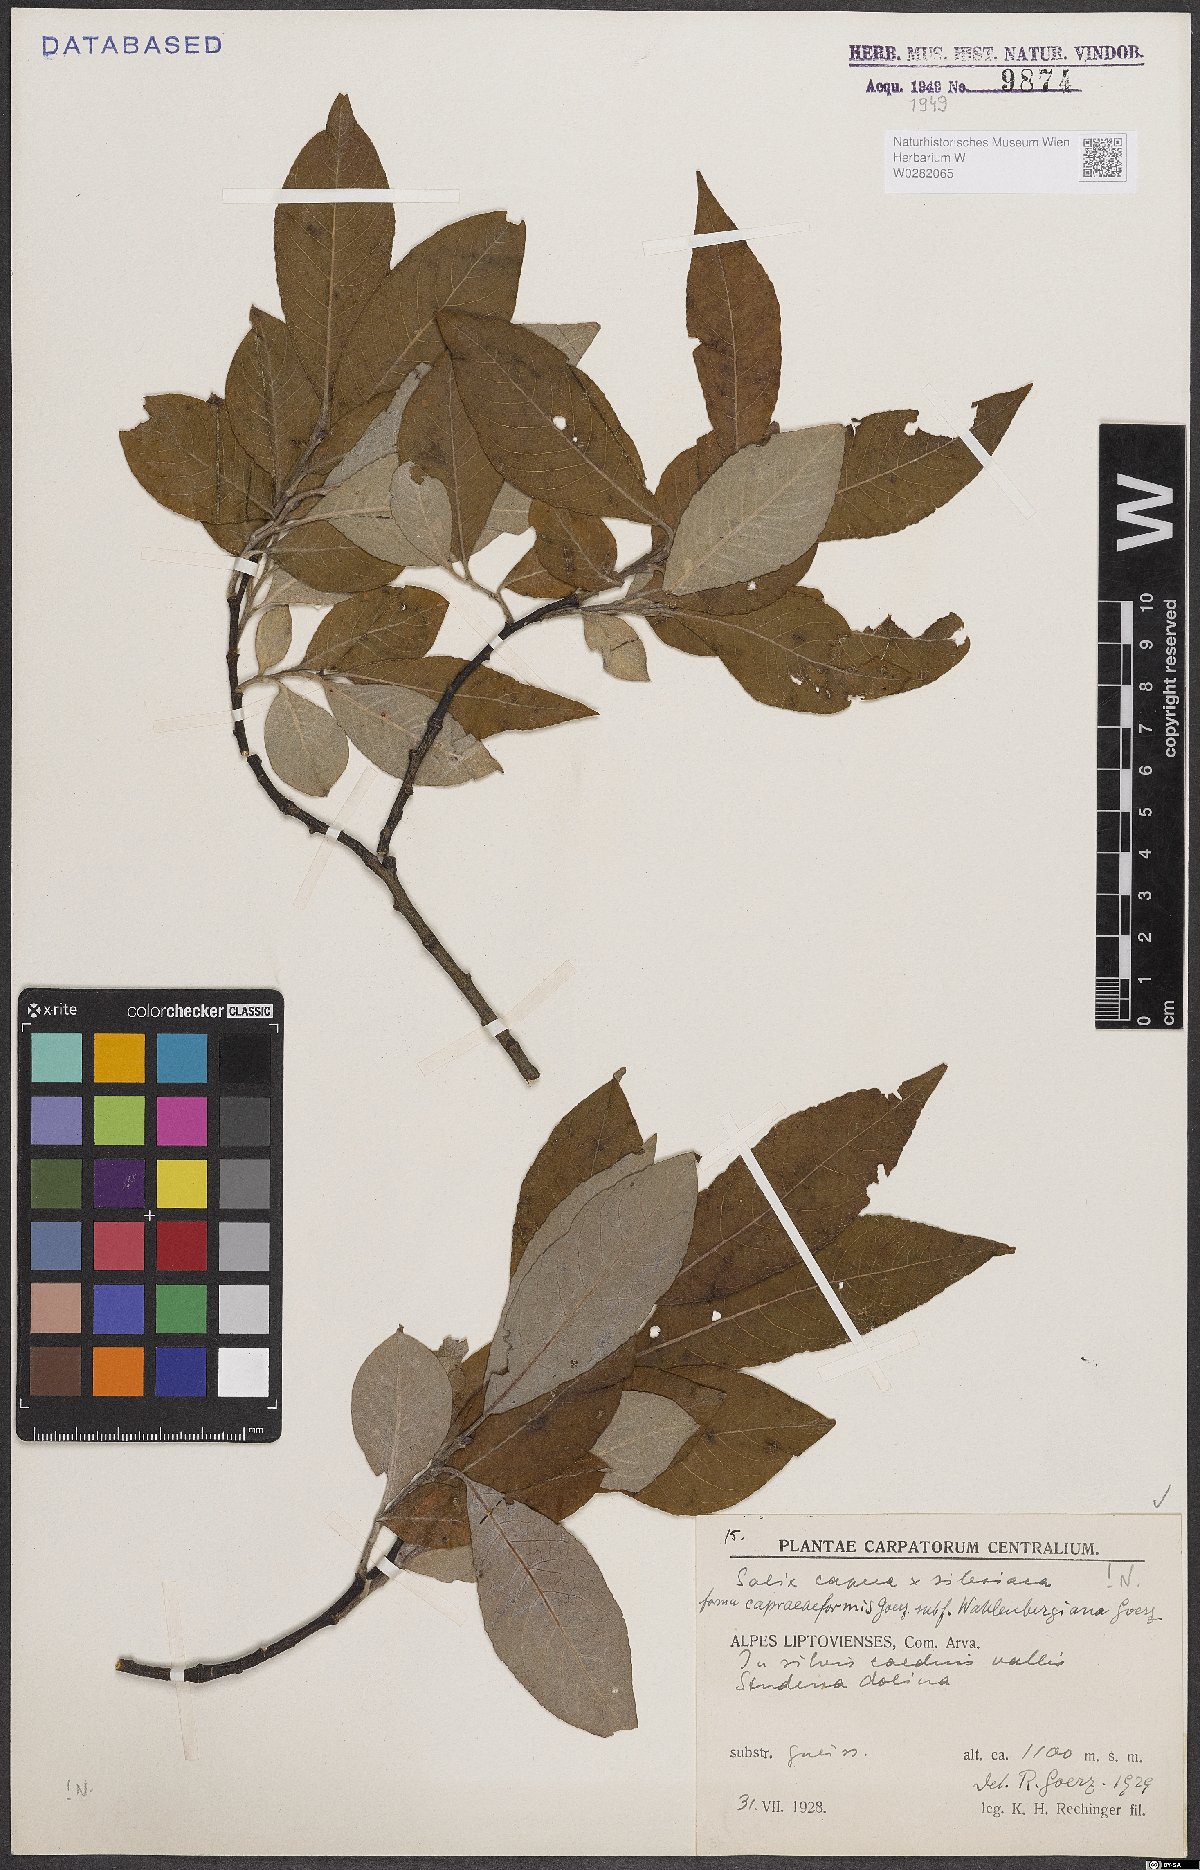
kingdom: Plantae
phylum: Tracheophyta
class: Magnoliopsida
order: Malpighiales
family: Salicaceae
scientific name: Salicaceae
